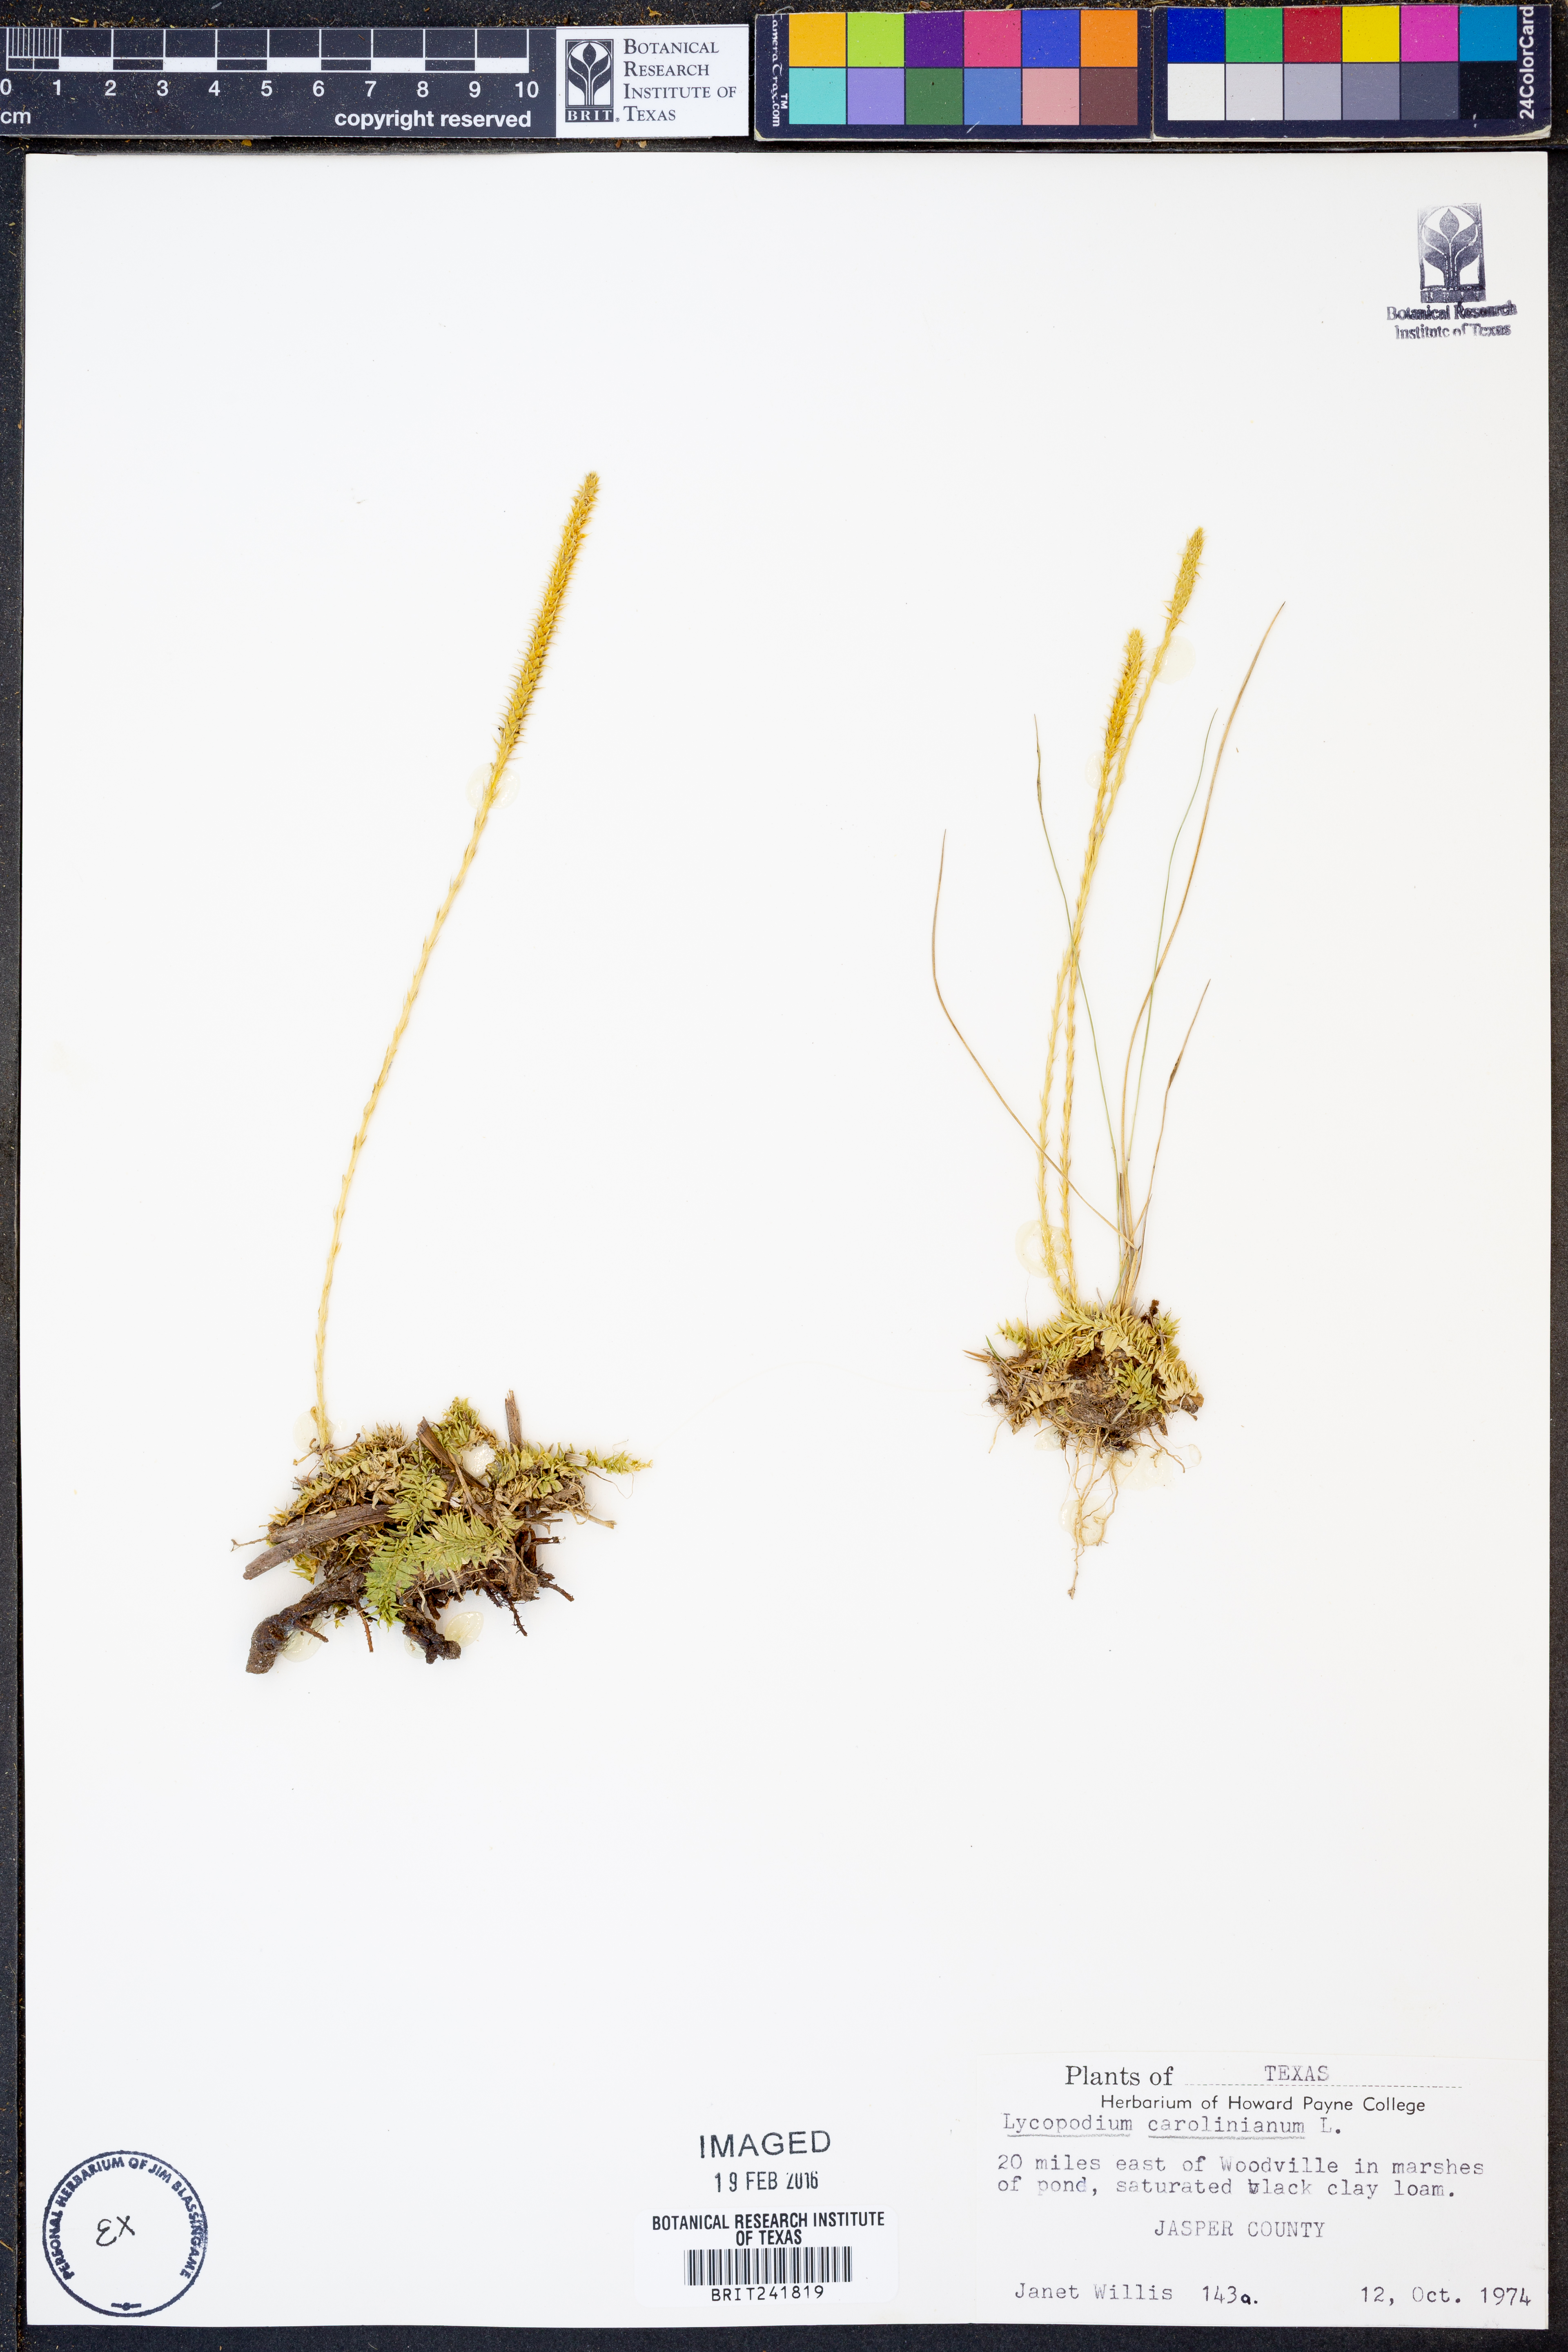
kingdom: Plantae
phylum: Tracheophyta
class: Lycopodiopsida
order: Lycopodiales
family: Lycopodiaceae
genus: Pseudolycopodiella
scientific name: Pseudolycopodiella caroliniana
